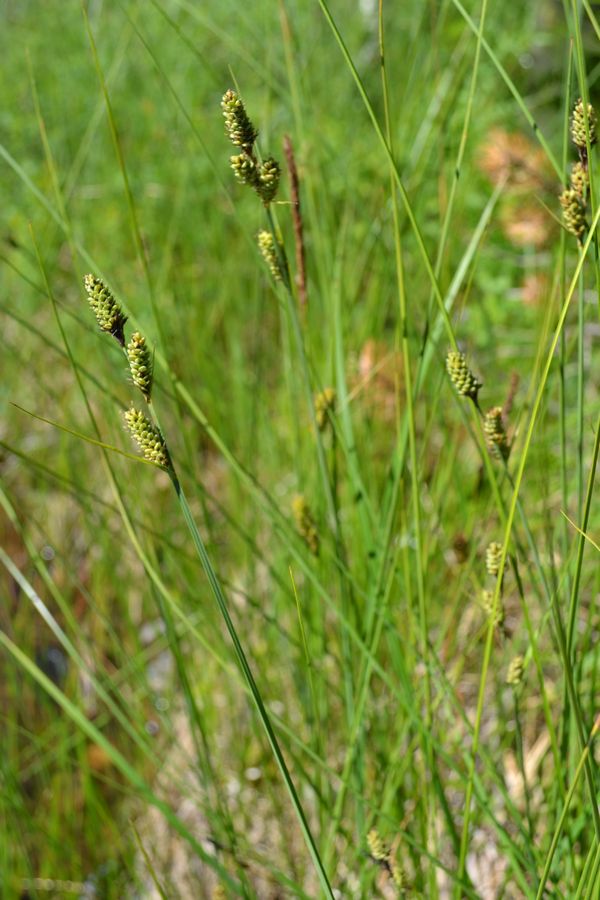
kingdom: Plantae
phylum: Tracheophyta
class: Liliopsida
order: Poales
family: Cyperaceae
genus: Carex
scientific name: Carex buxbaumii
